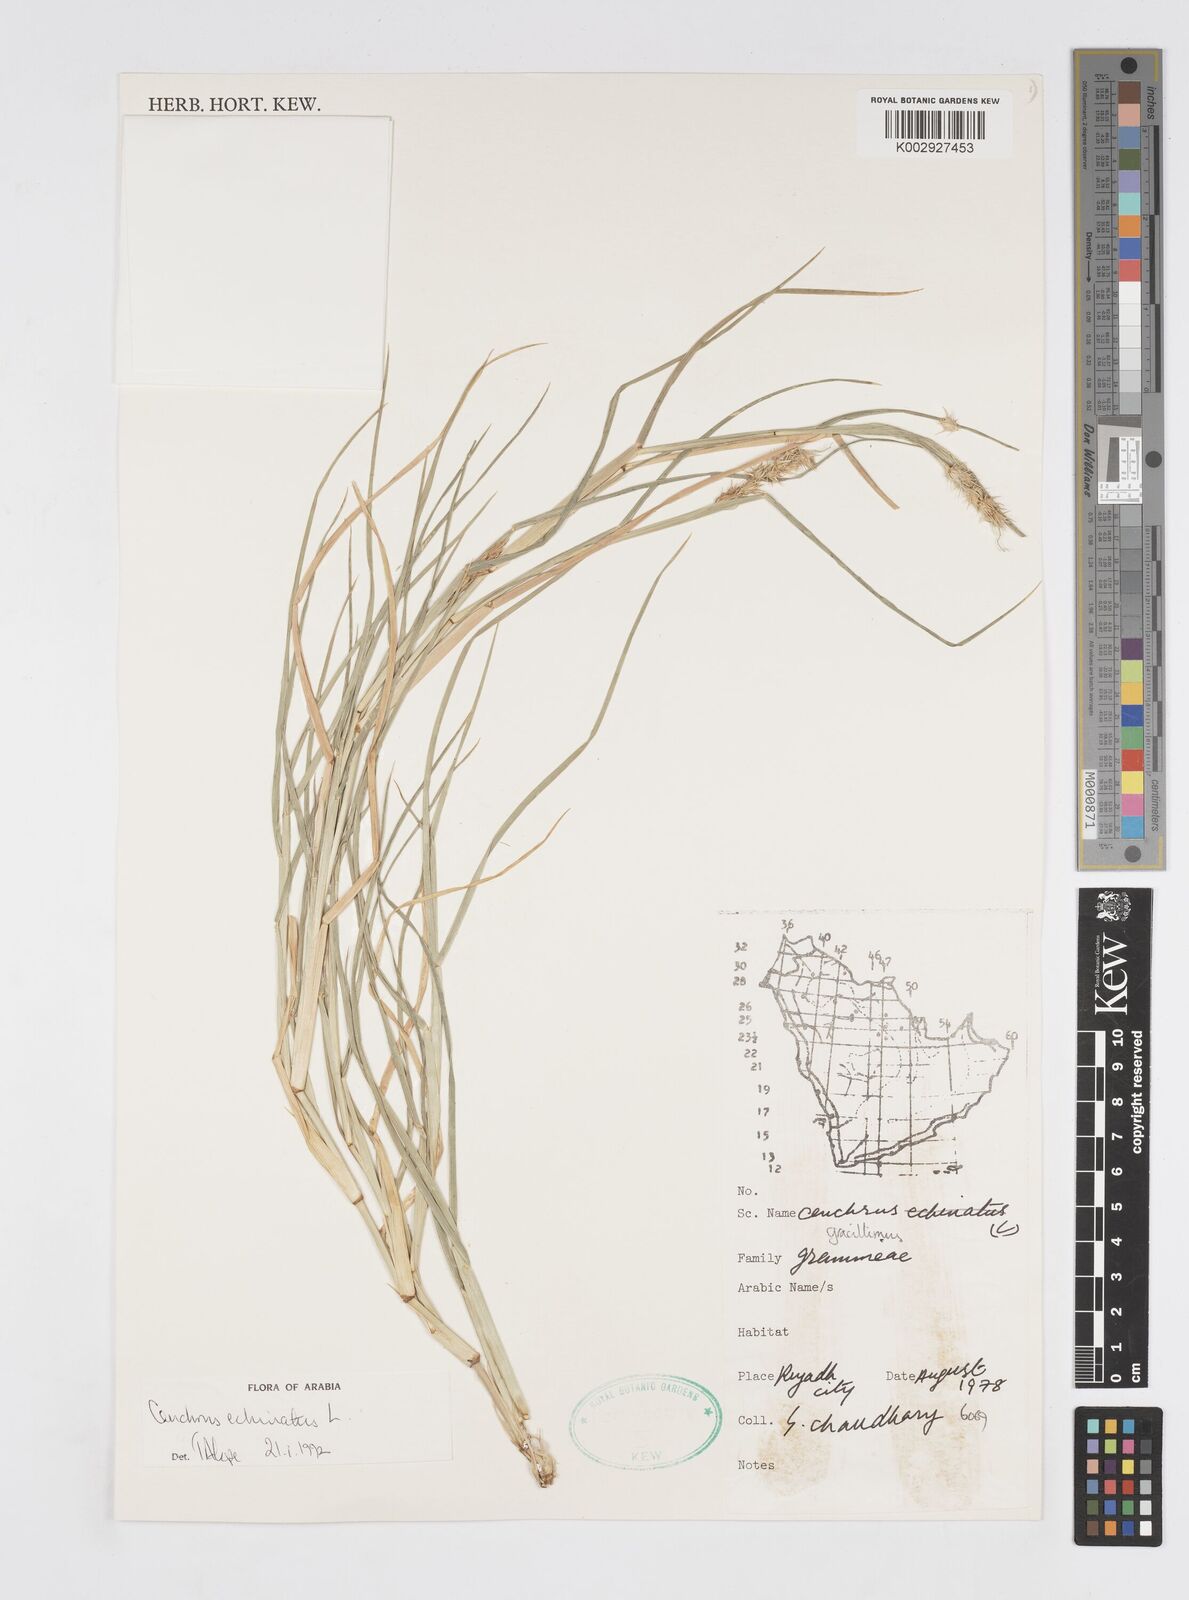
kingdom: Plantae
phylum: Tracheophyta
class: Liliopsida
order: Poales
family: Poaceae
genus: Cenchrus
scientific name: Cenchrus echinatus
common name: Southern sandbur
